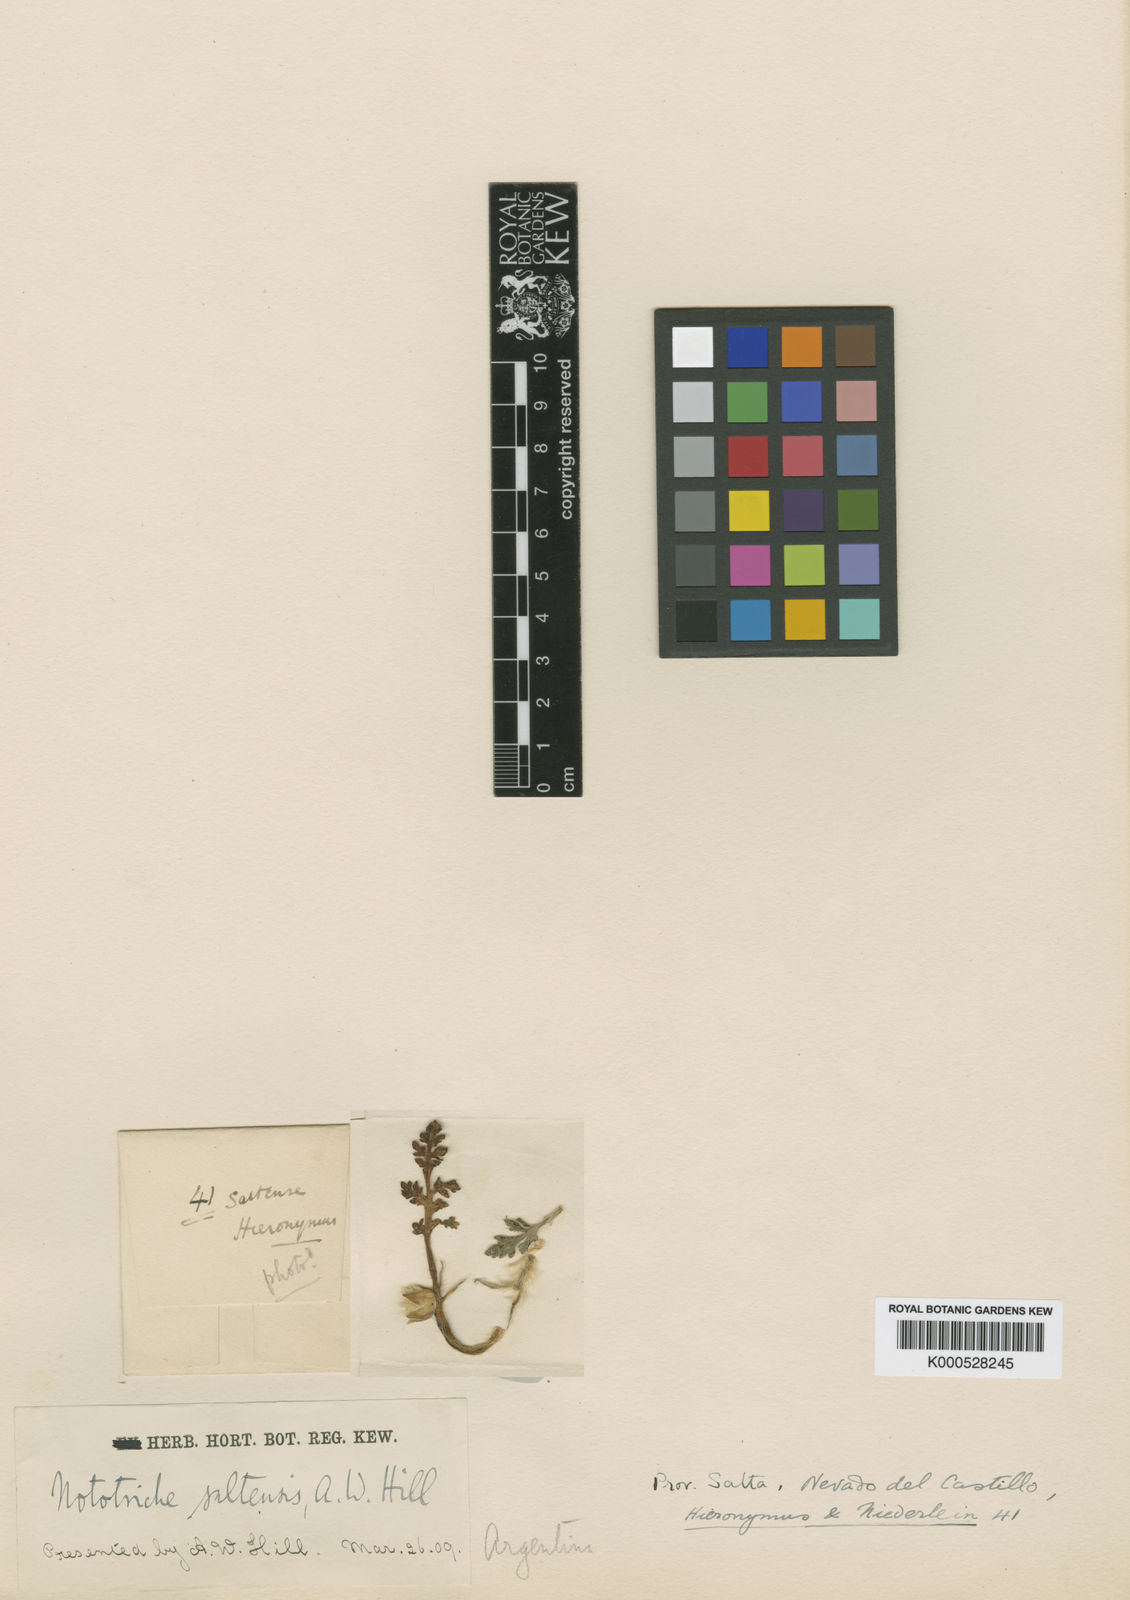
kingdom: Plantae
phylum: Tracheophyta
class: Magnoliopsida
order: Malvales
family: Malvaceae
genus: Nototriche
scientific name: Nototriche anthemidifolia
